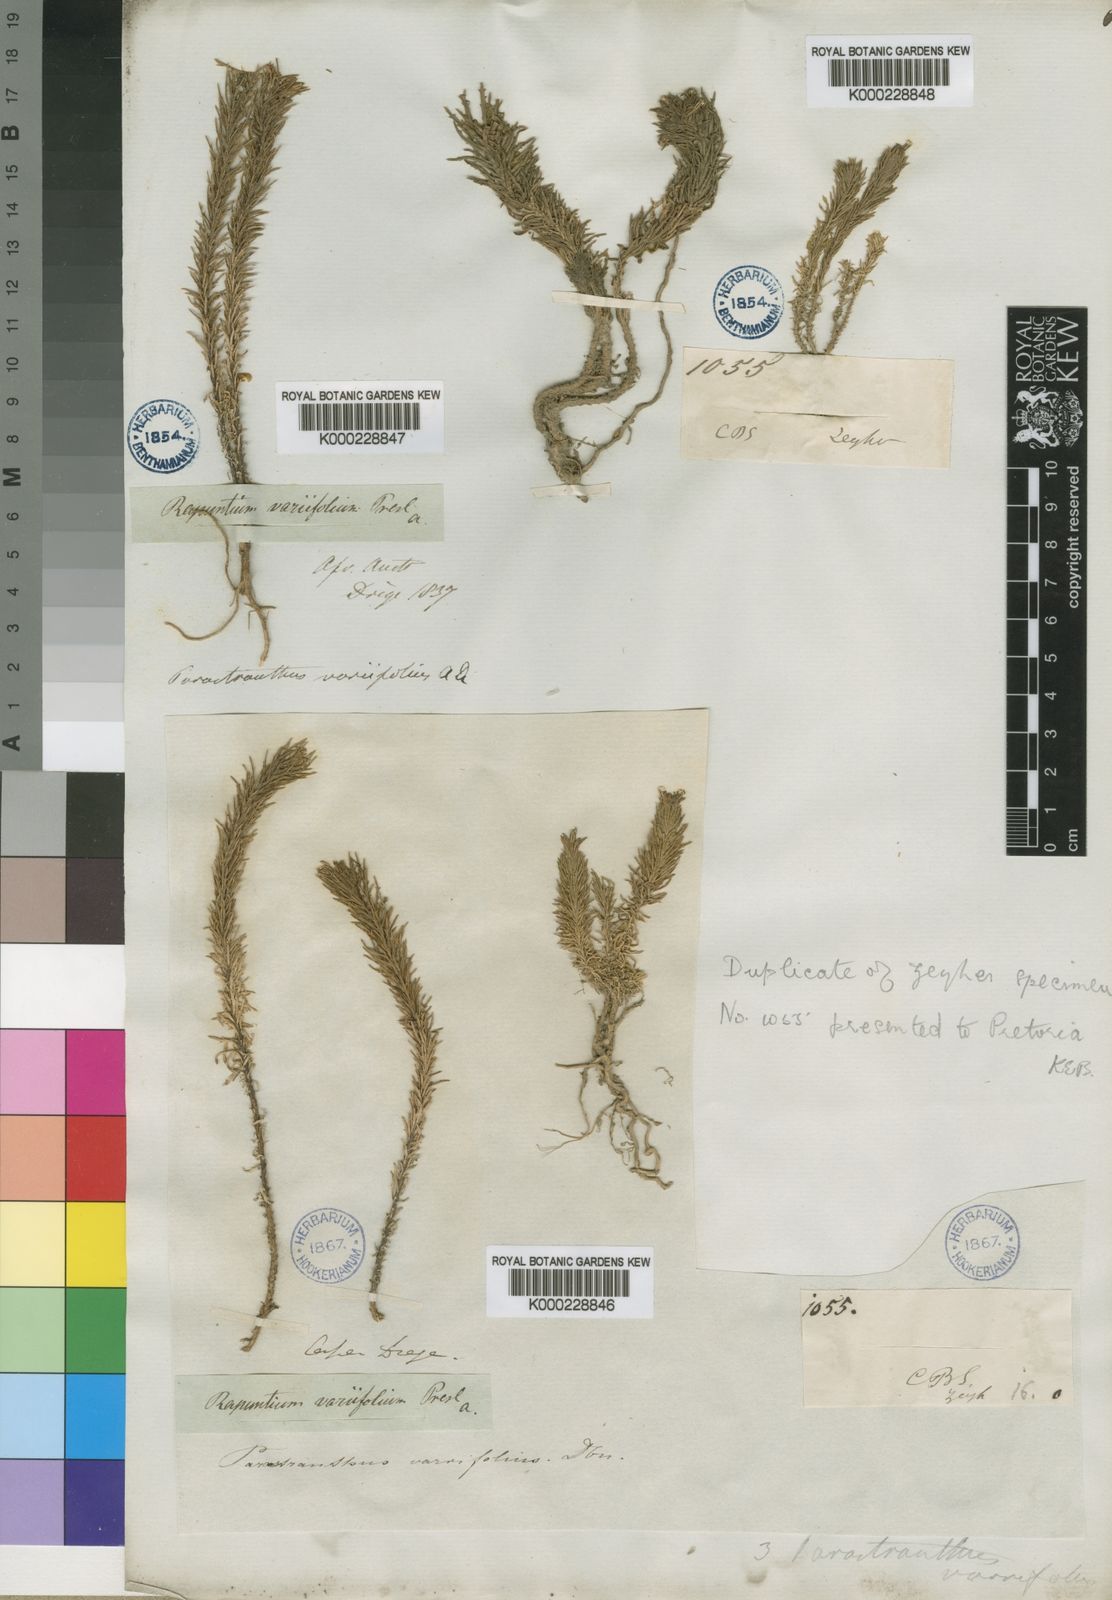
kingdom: Plantae
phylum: Tracheophyta
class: Magnoliopsida
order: Asterales
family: Campanulaceae
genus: Monopsis
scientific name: Monopsis variifolia
